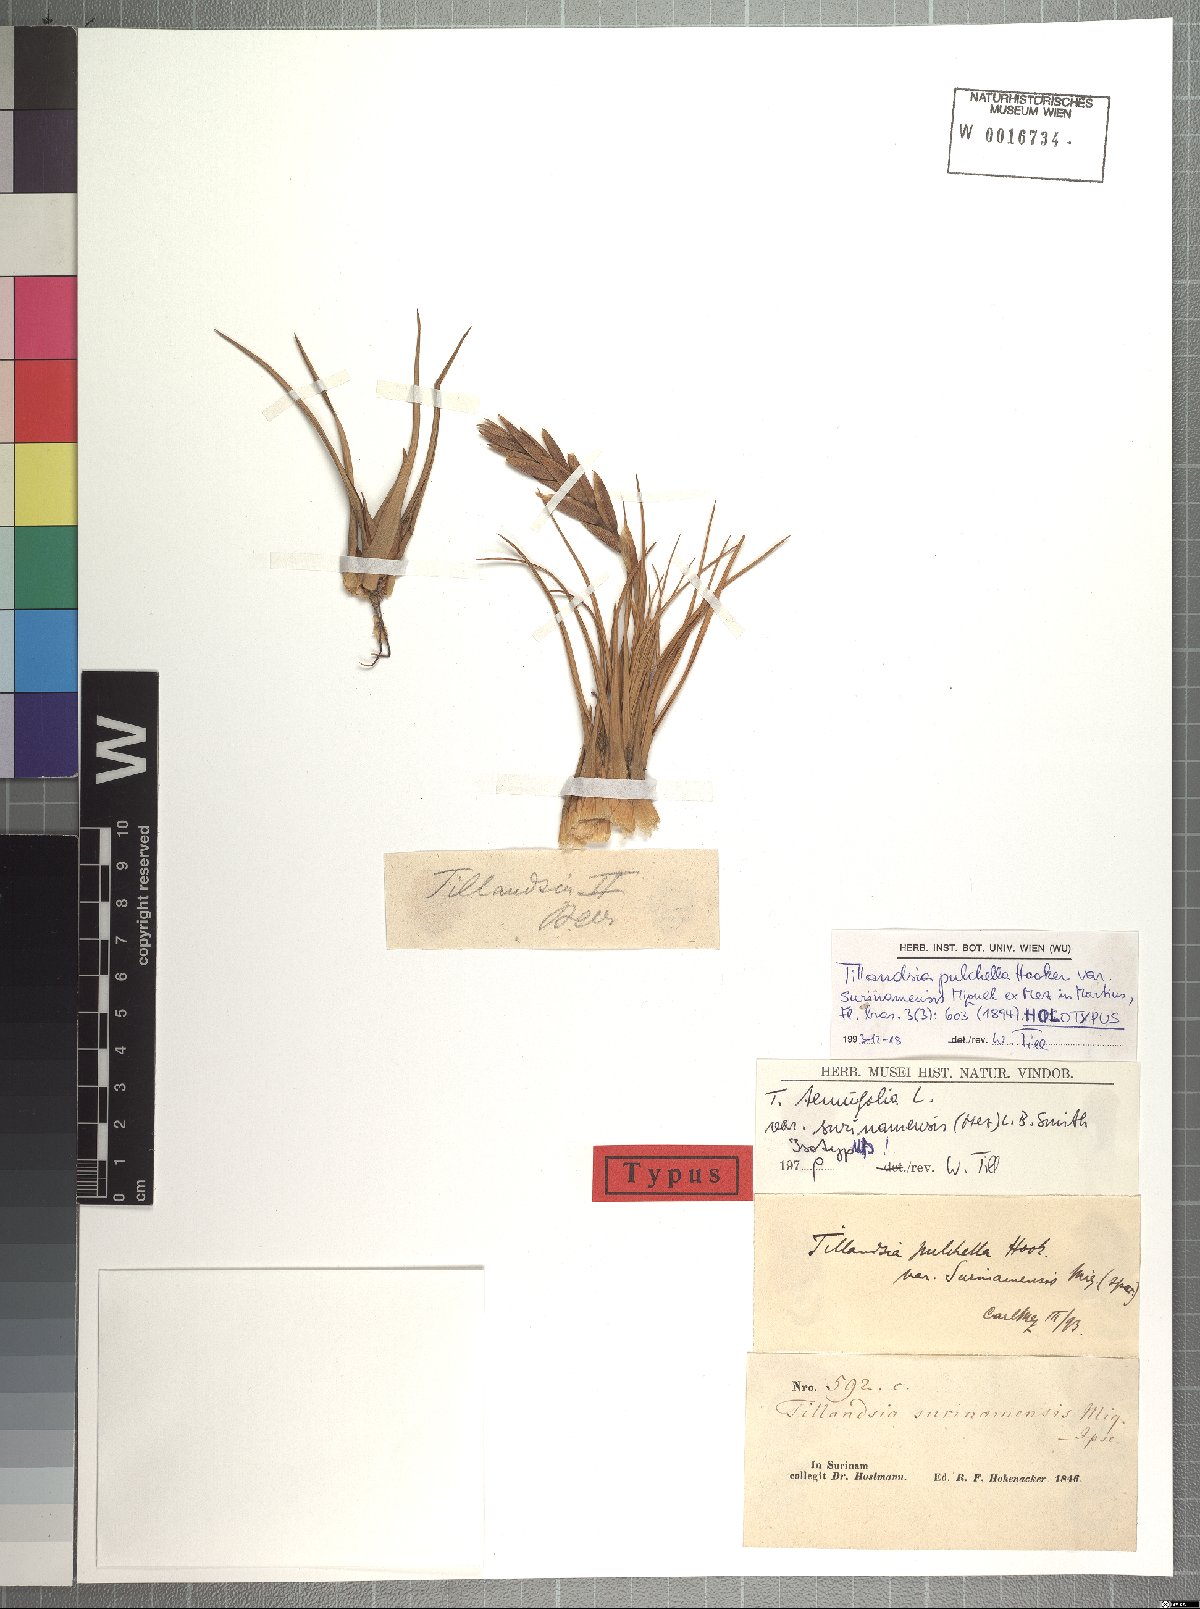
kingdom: Plantae
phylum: Tracheophyta
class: Liliopsida
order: Poales
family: Bromeliaceae
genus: Tillandsia
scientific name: Tillandsia tenuifolia
